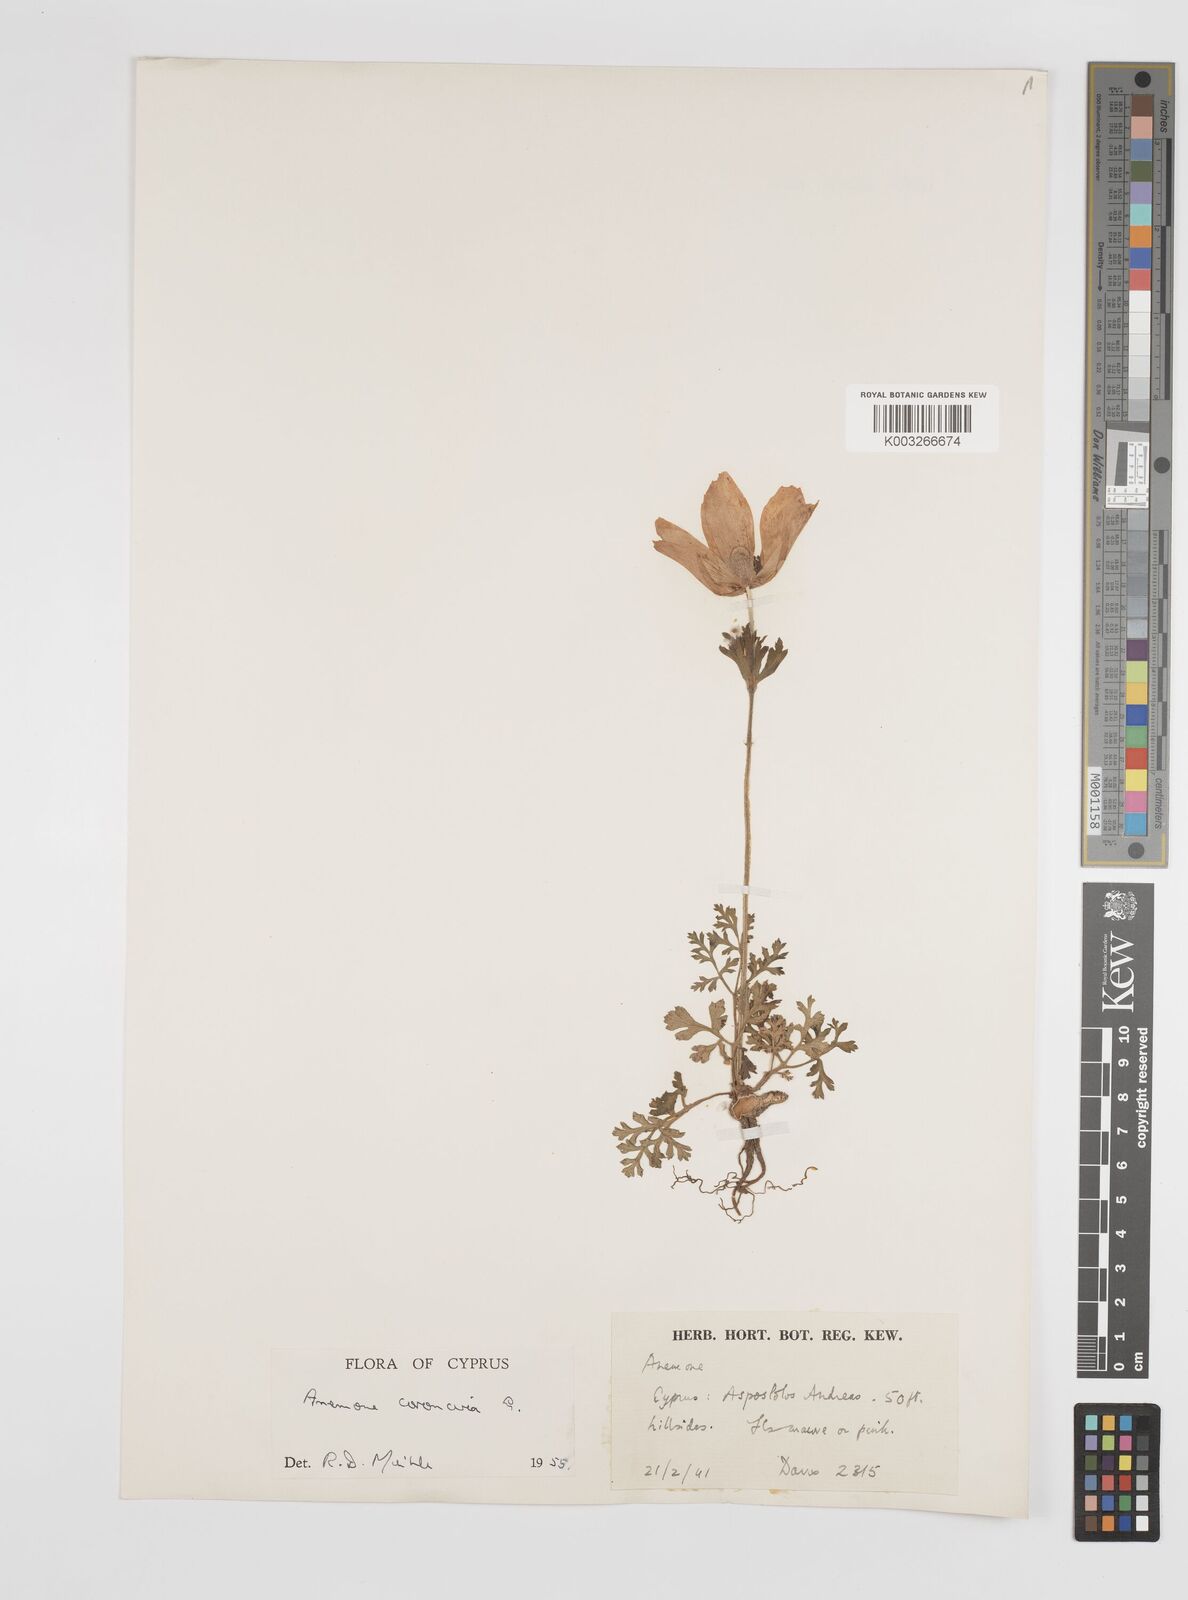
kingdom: Plantae
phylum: Tracheophyta
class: Magnoliopsida
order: Ranunculales
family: Ranunculaceae
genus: Anemone
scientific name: Anemone coronaria
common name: Poppy anemone
